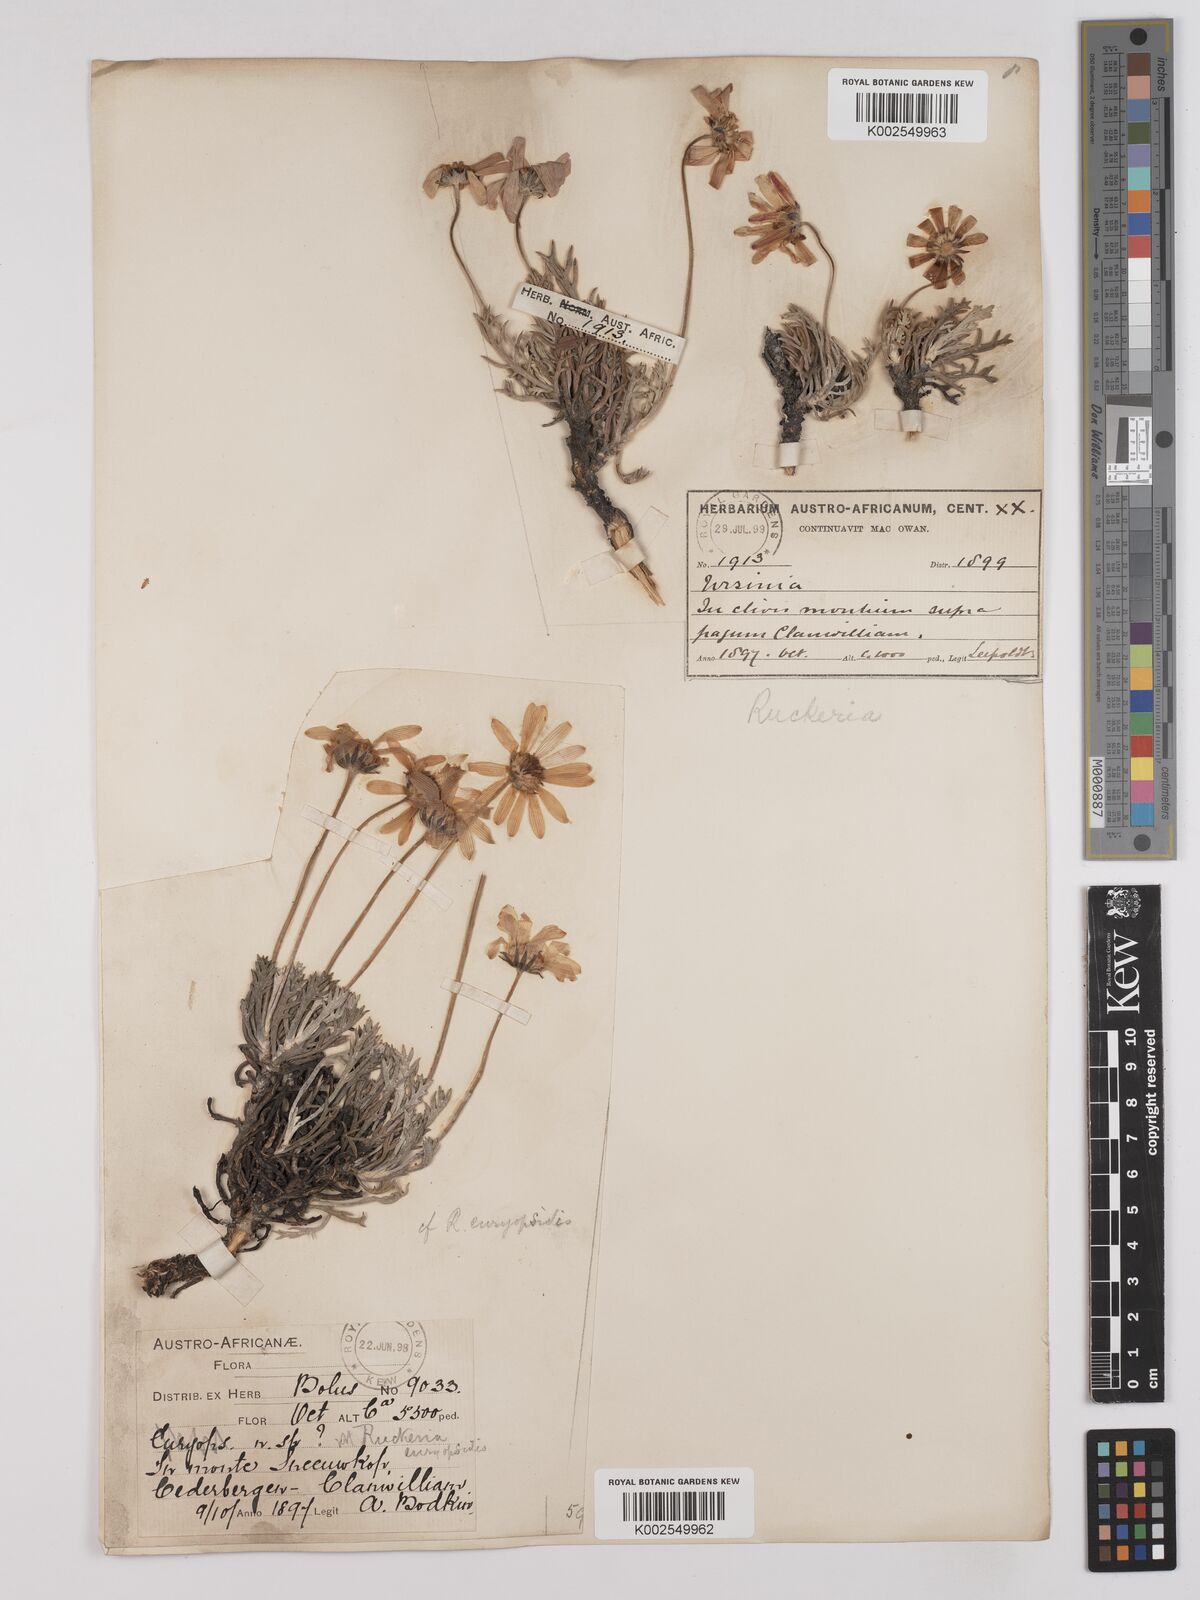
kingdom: Plantae
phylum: Tracheophyta
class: Magnoliopsida
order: Asterales
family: Asteraceae
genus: Euryops
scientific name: Euryops euryopoides
